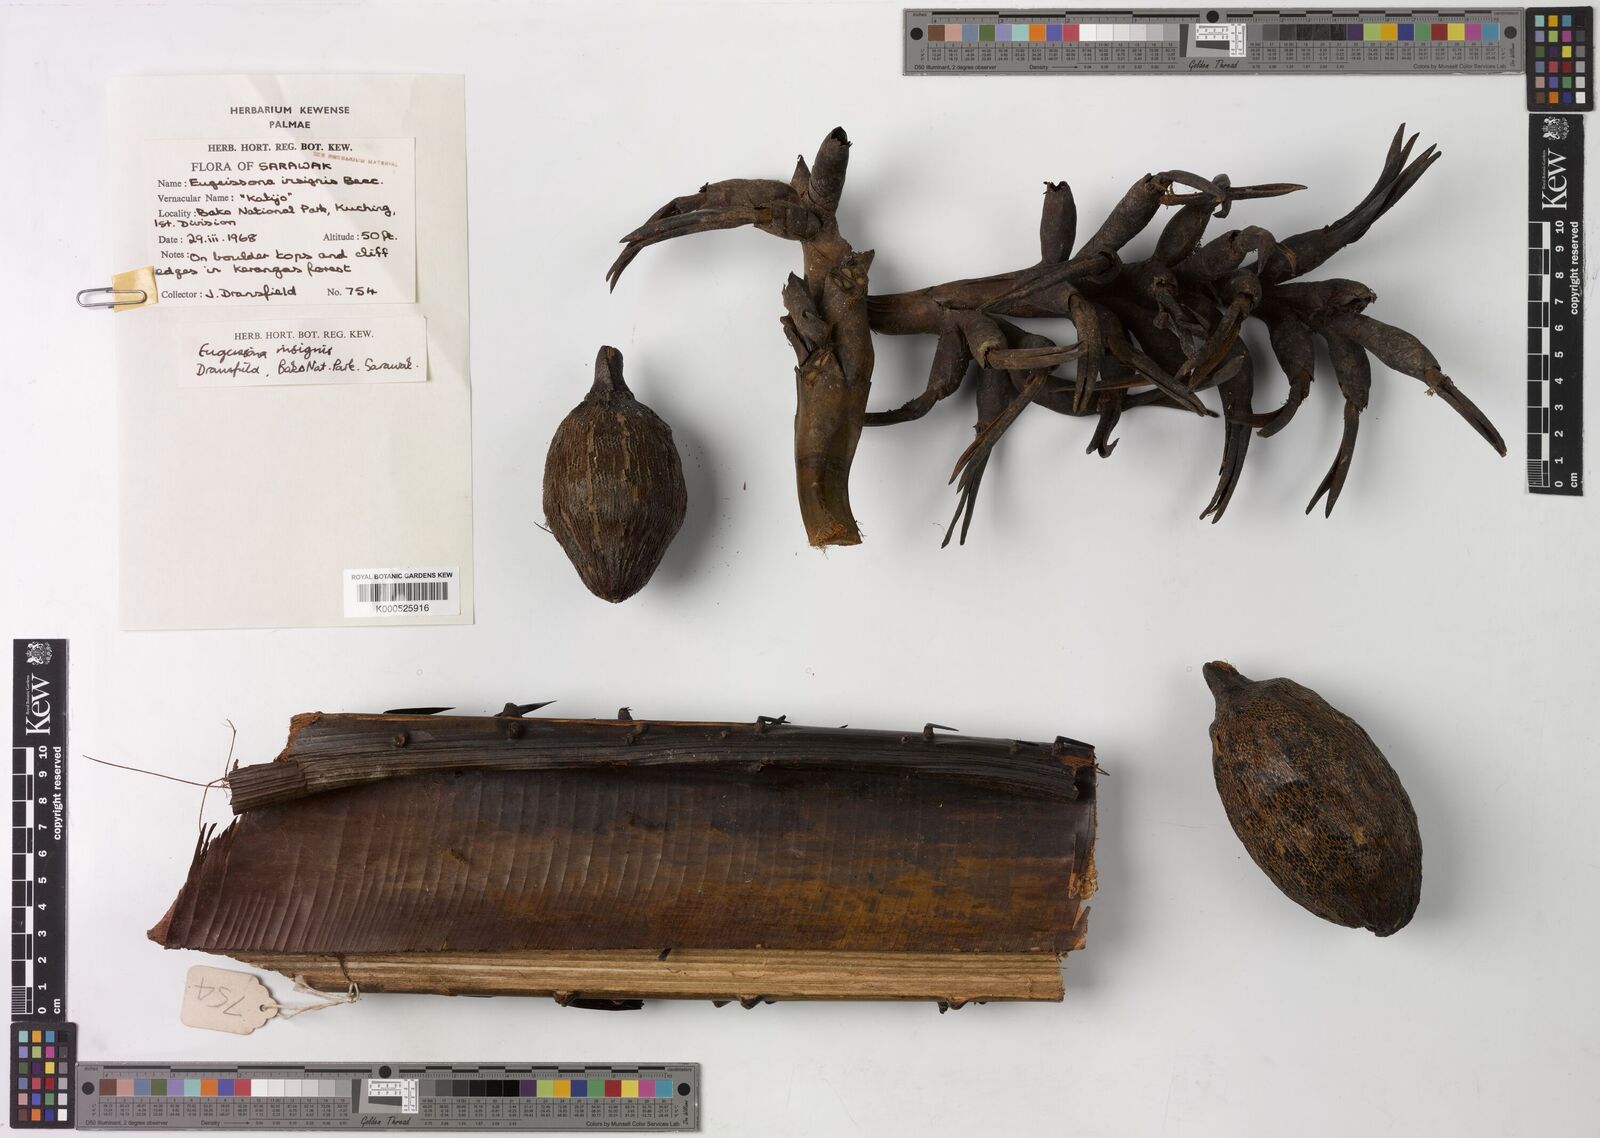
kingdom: Plantae
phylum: Tracheophyta
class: Liliopsida
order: Arecales
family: Arecaceae
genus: Eugeissona
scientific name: Eugeissona insignis
